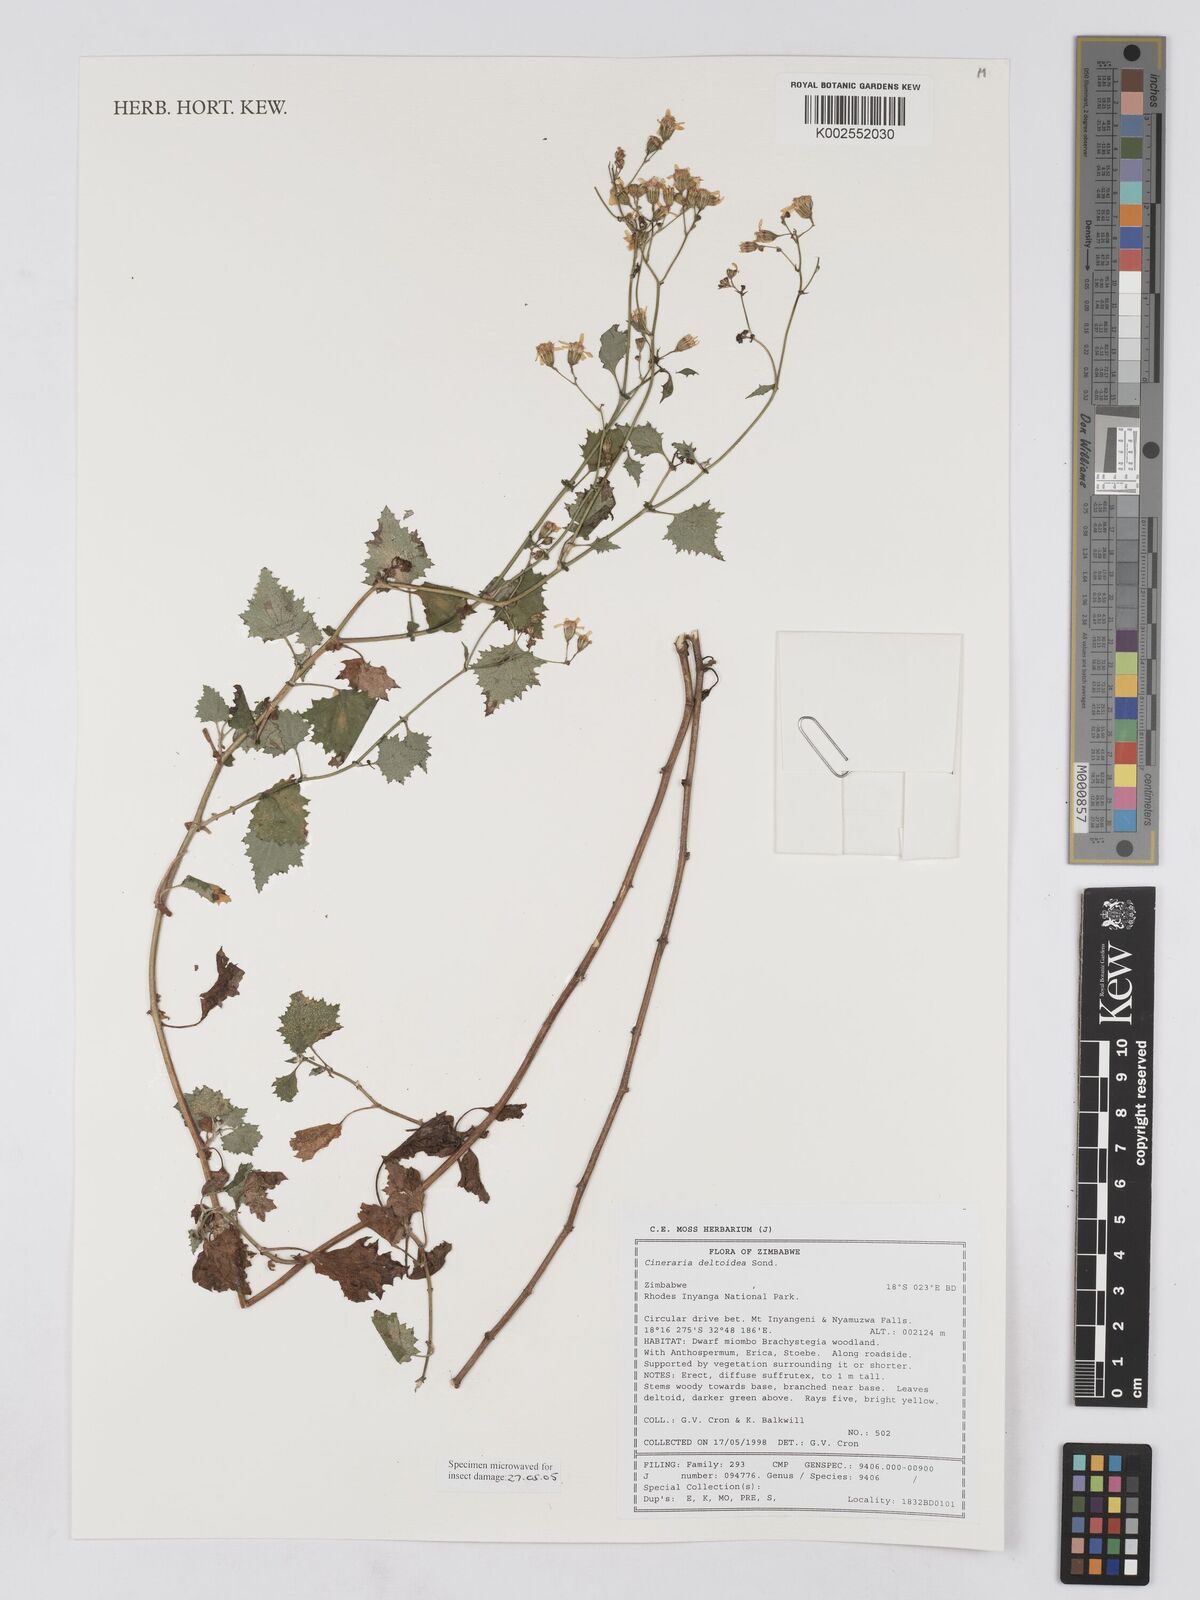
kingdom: Plantae
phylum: Tracheophyta
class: Magnoliopsida
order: Asterales
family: Asteraceae
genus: Cineraria
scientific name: Cineraria deltoidea
